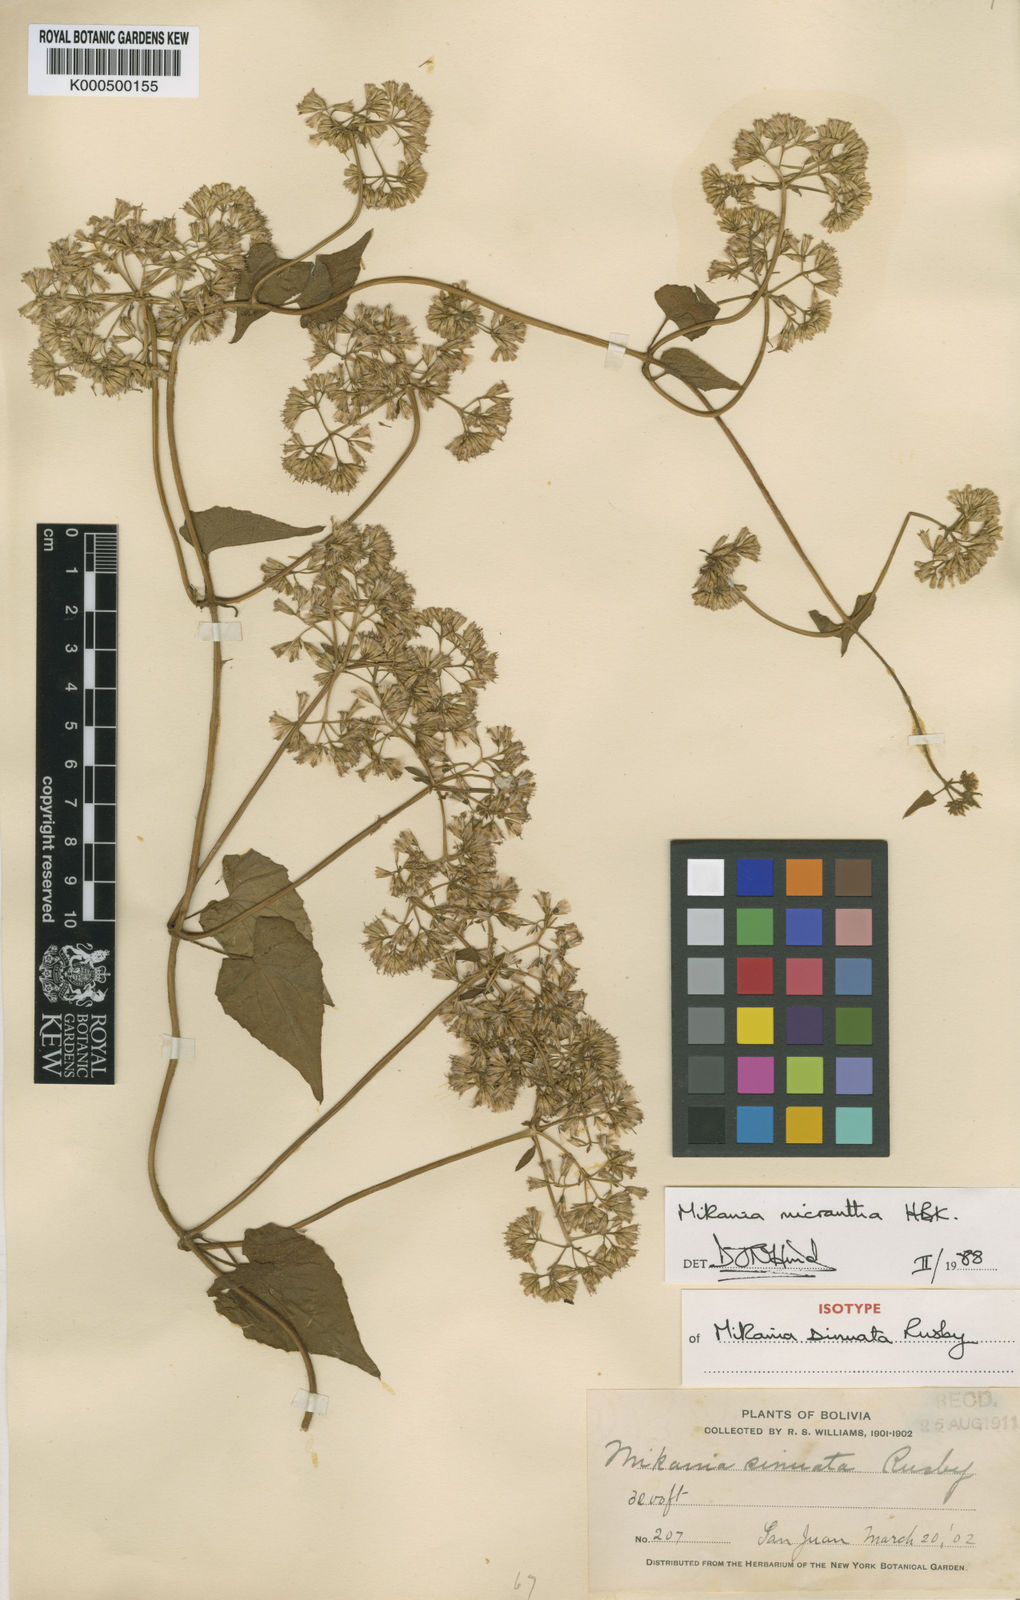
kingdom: Plantae
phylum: Tracheophyta
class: Magnoliopsida
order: Asterales
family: Asteraceae
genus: Mikania
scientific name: Mikania micrantha
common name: Mile-a-minute
